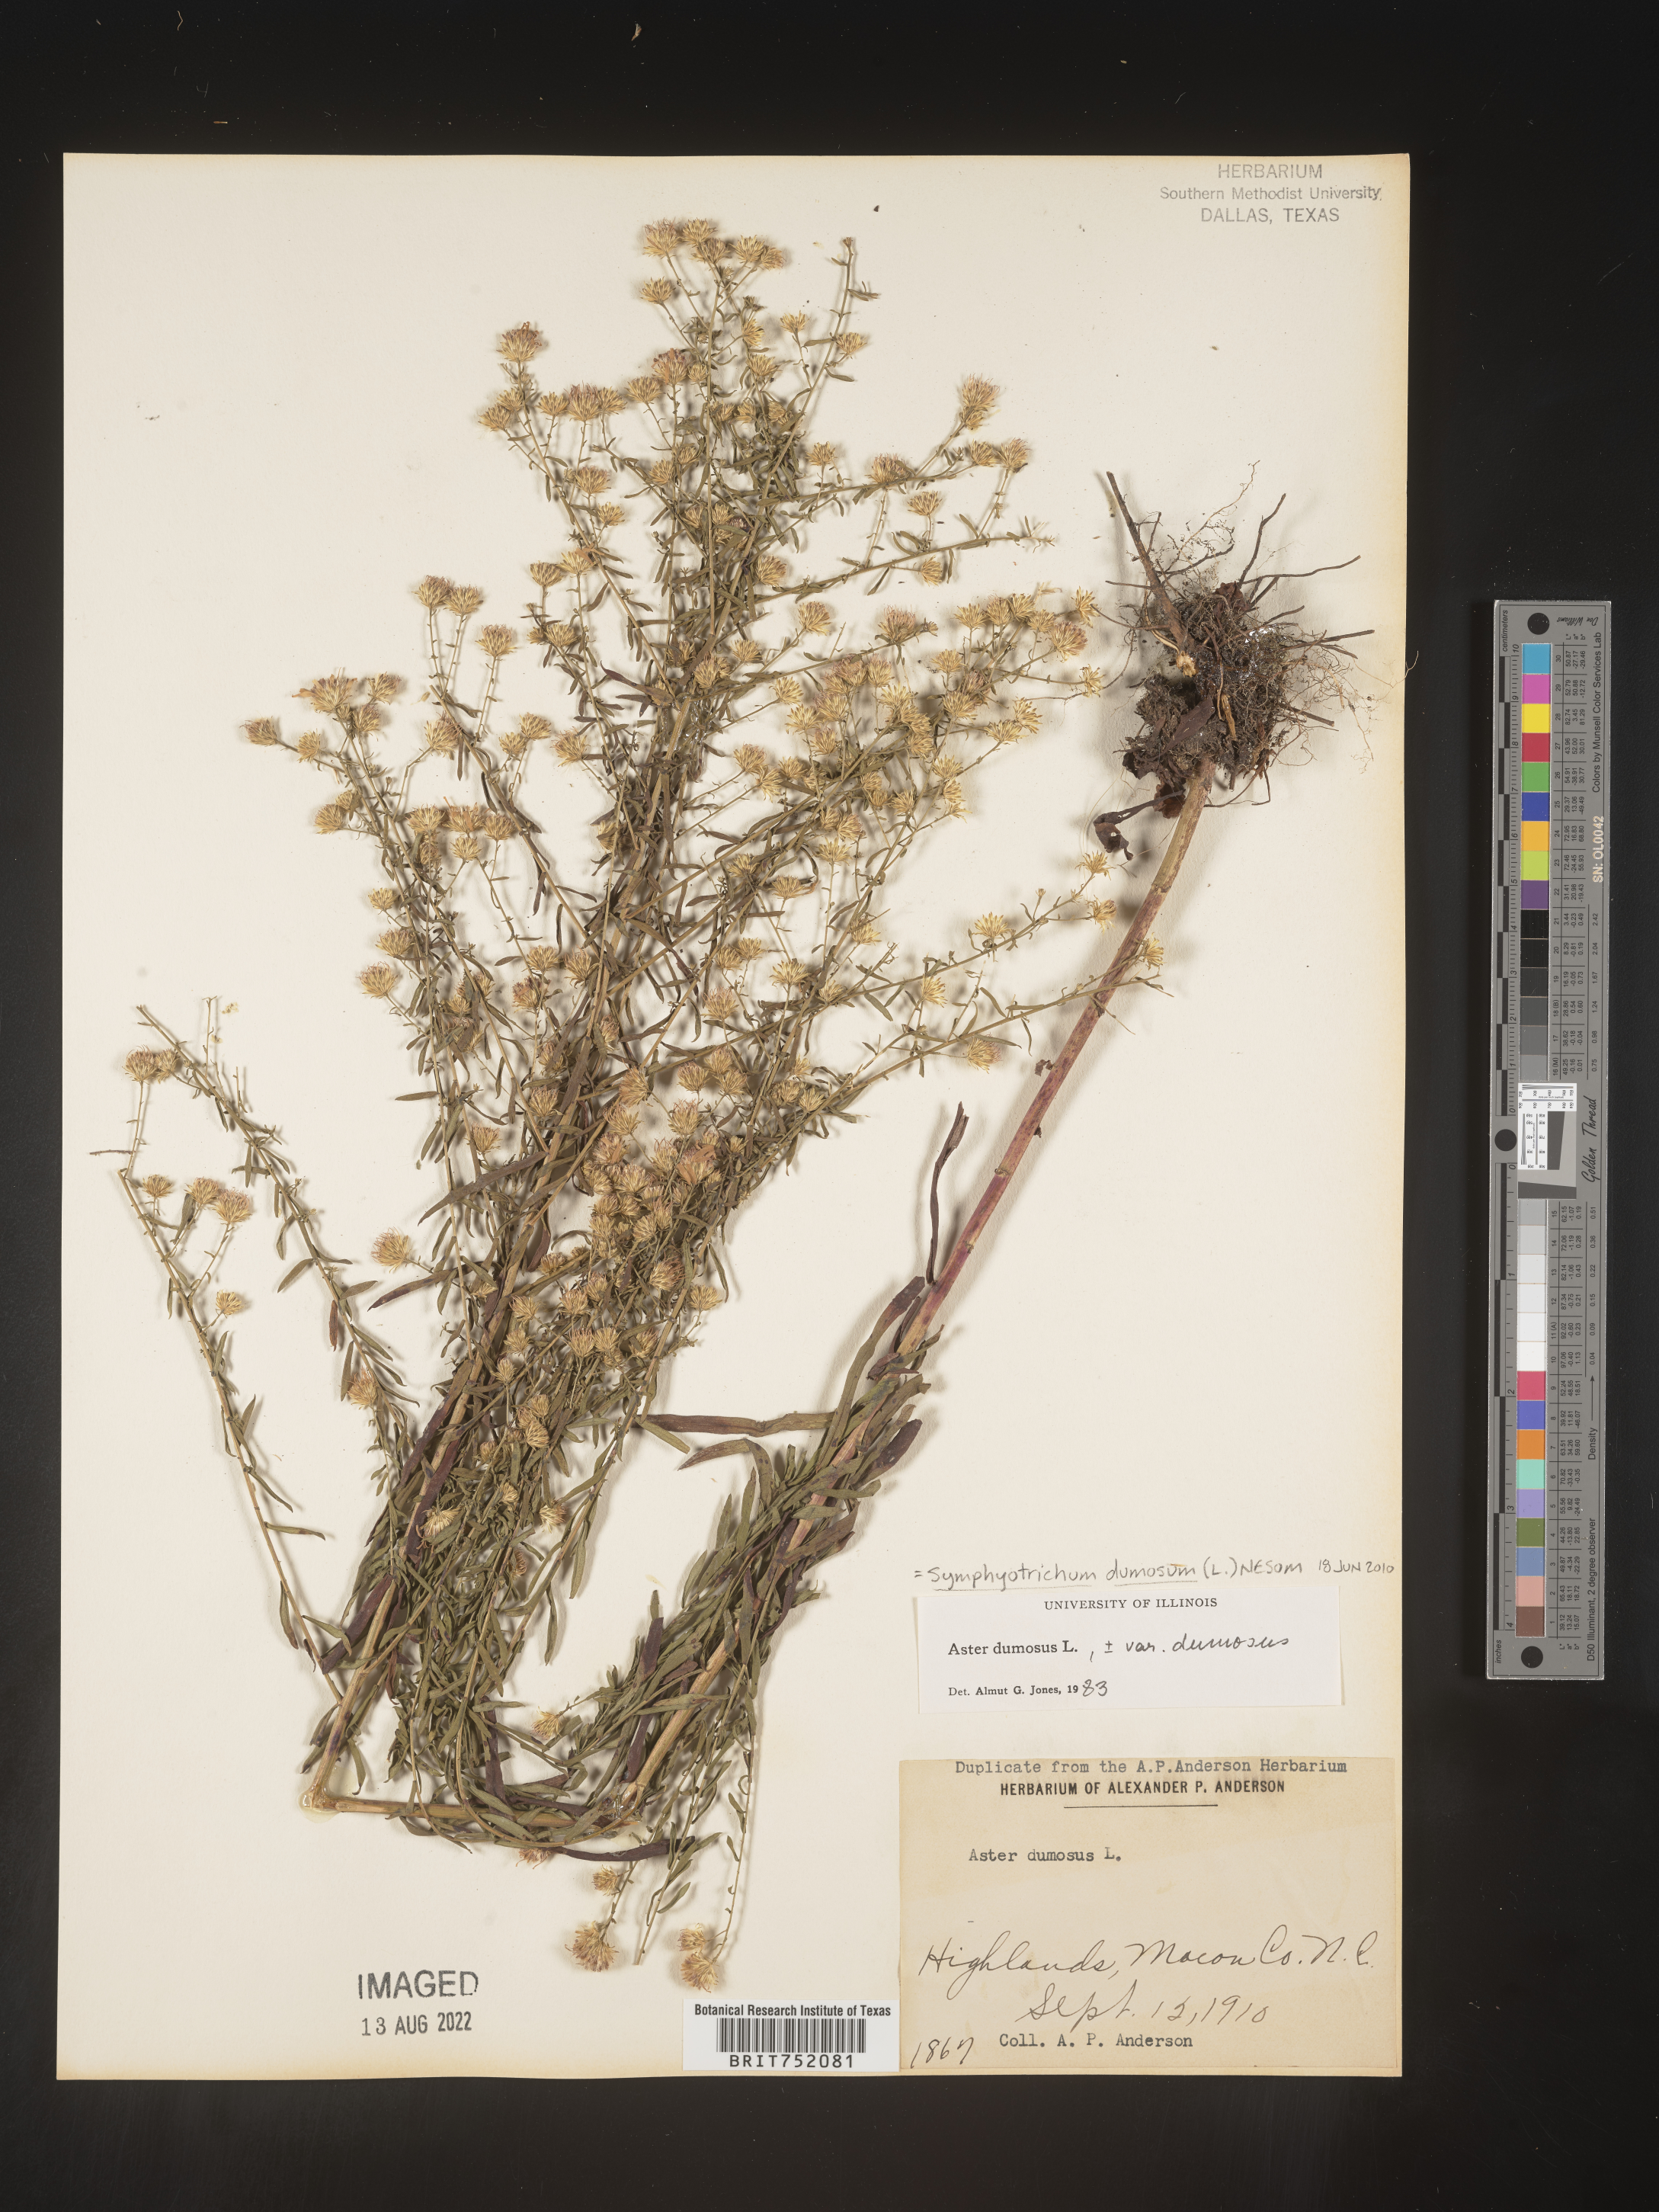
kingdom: Plantae
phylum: Tracheophyta
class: Magnoliopsida
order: Asterales
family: Asteraceae
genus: Symphyotrichum
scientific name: Symphyotrichum dumosum
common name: Bushy aster
